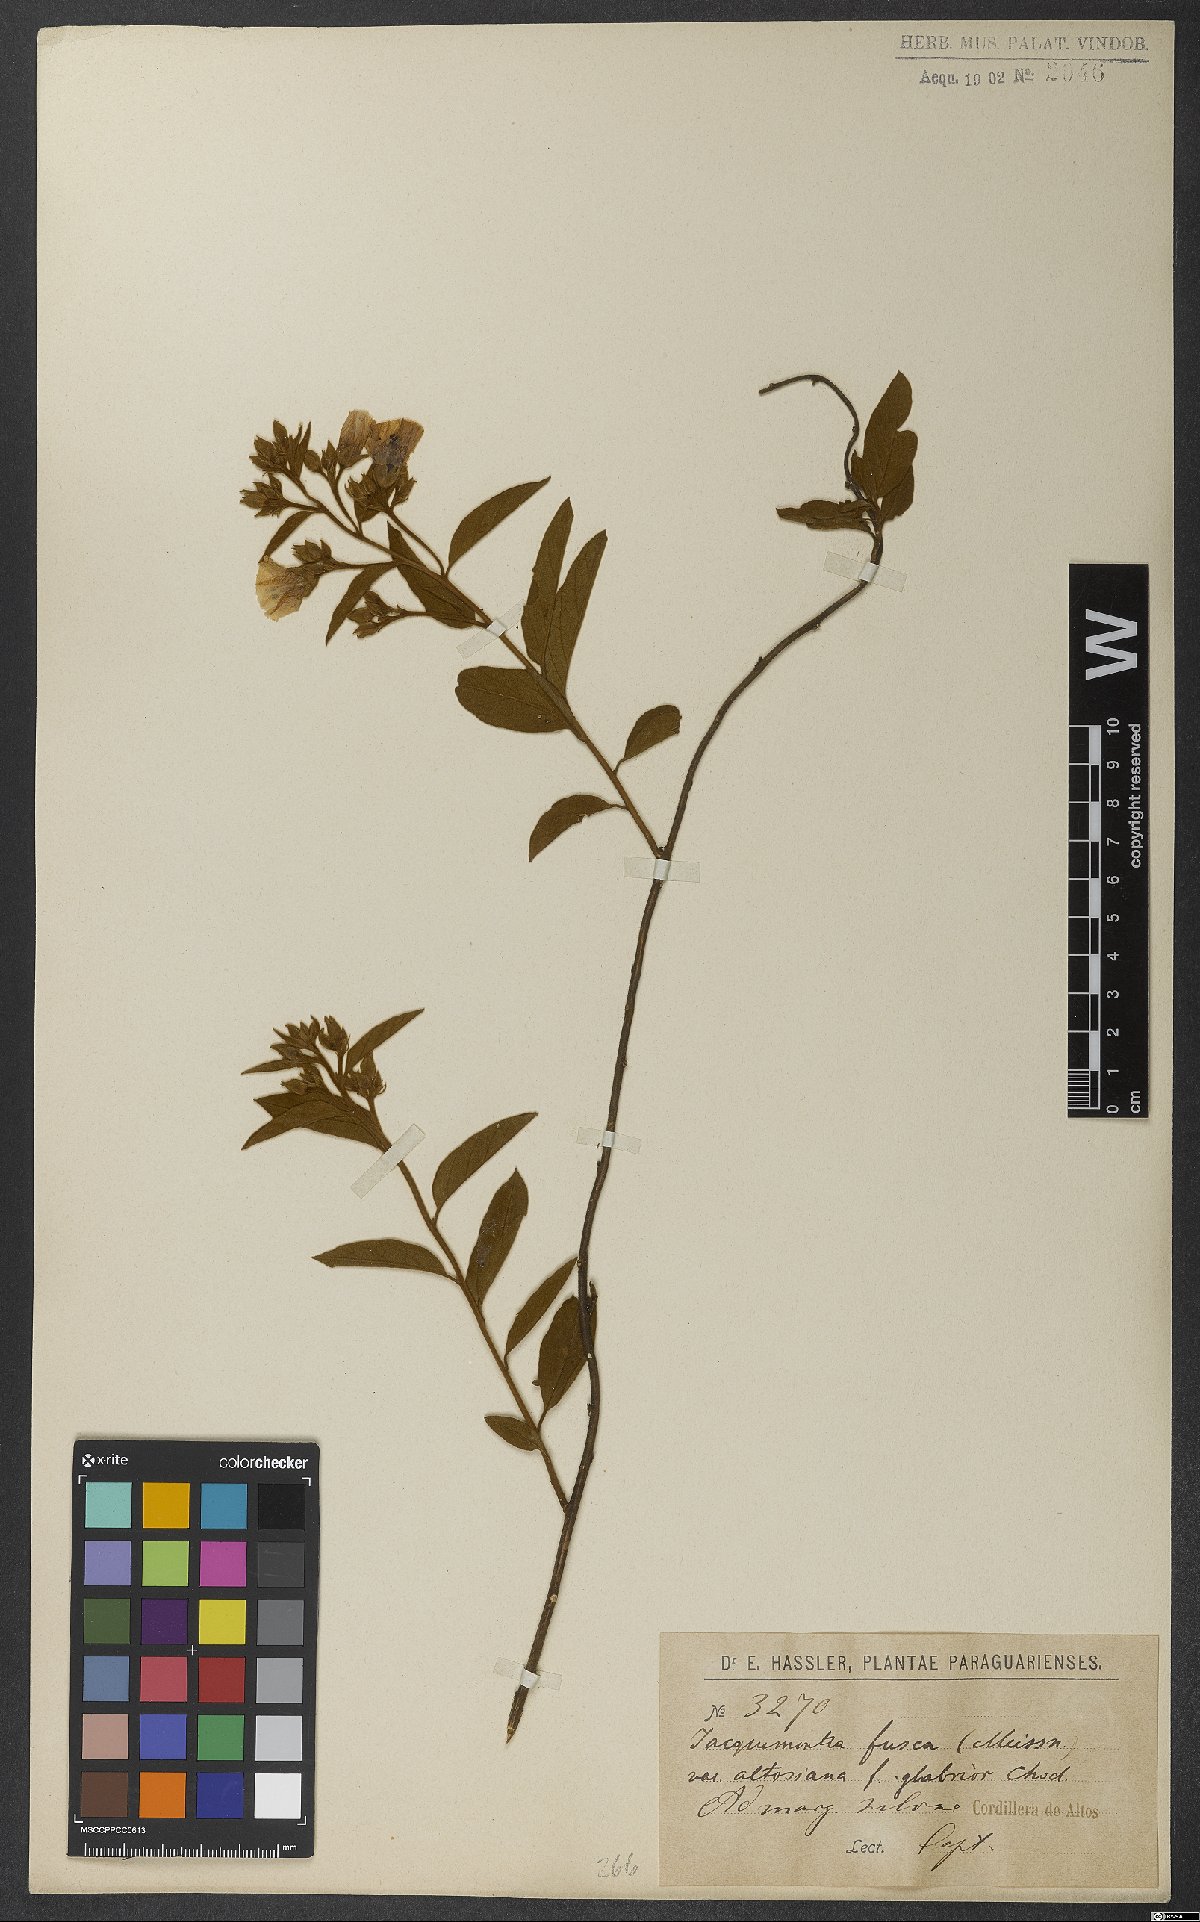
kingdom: Plantae
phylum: Tracheophyta
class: Magnoliopsida
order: Solanales
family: Convolvulaceae
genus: Jacquemontia
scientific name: Jacquemontia fusca
